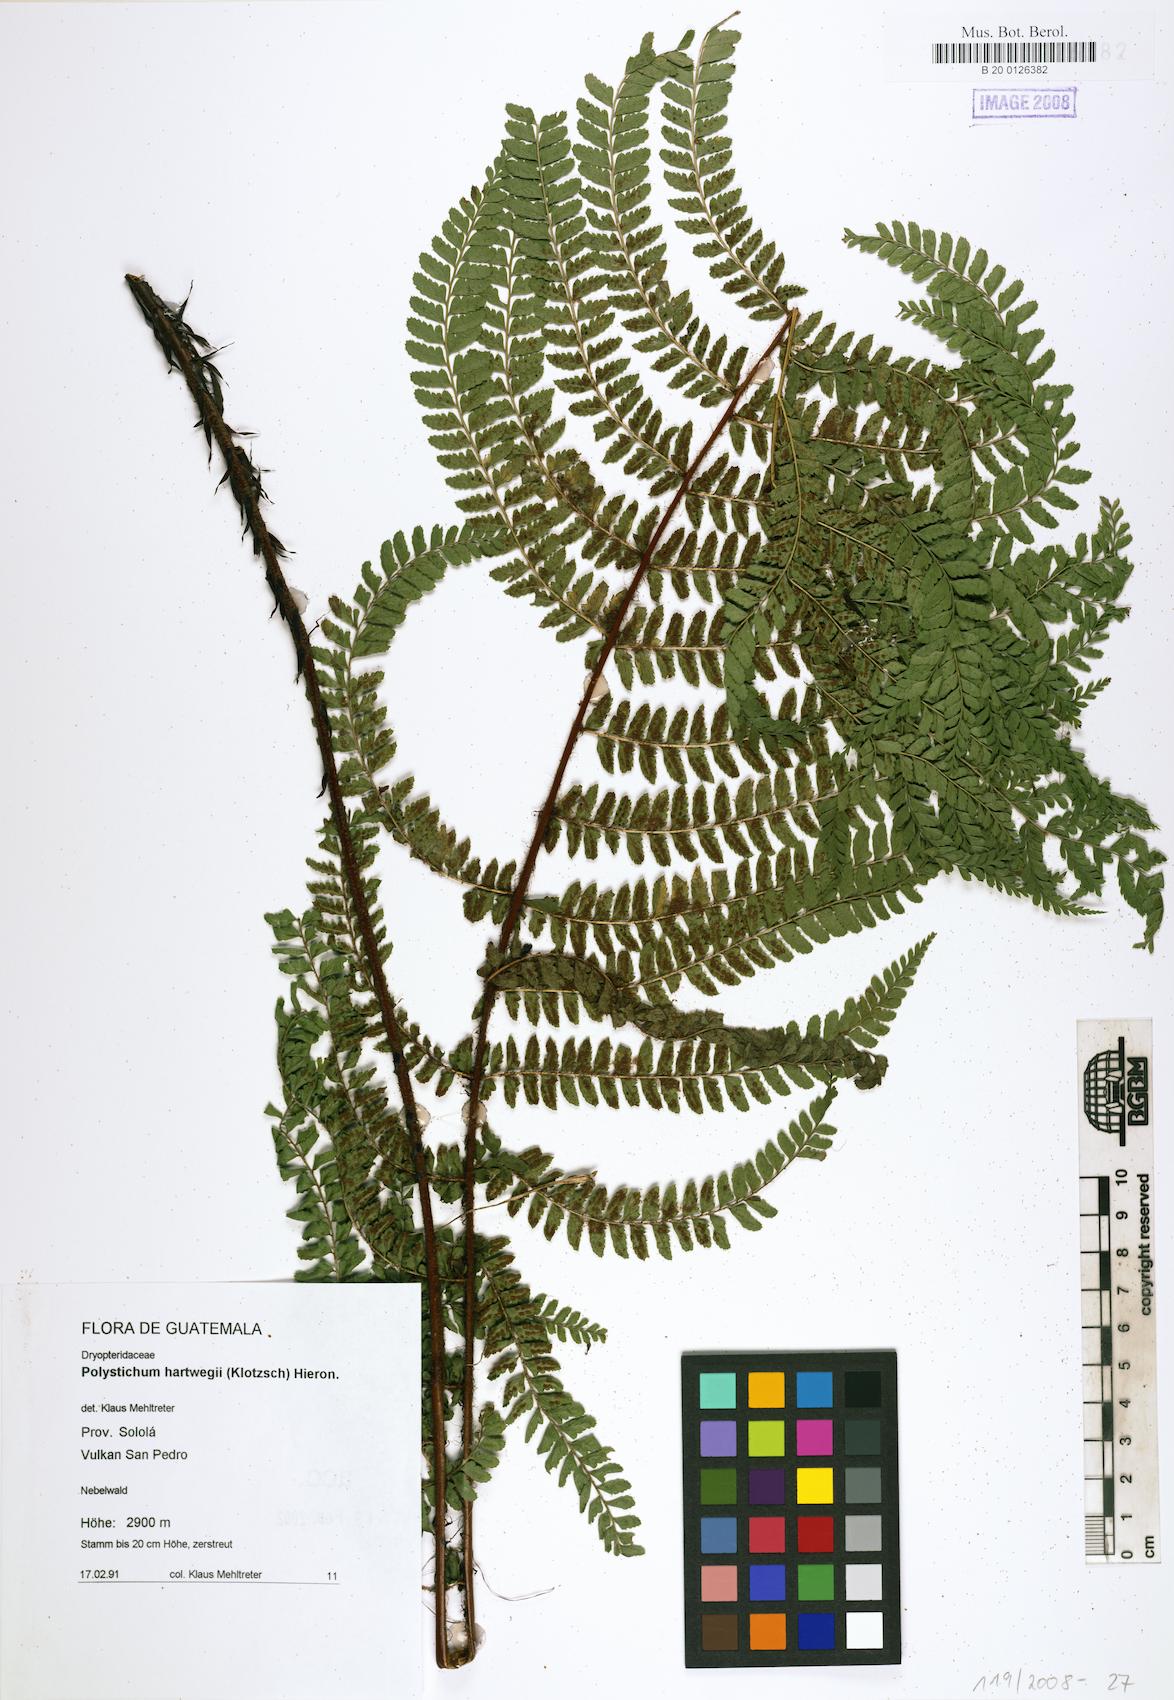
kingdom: Plantae
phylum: Tracheophyta
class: Polypodiopsida
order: Polypodiales
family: Dryopteridaceae
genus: Polystichum
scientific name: Polystichum hartwegii
